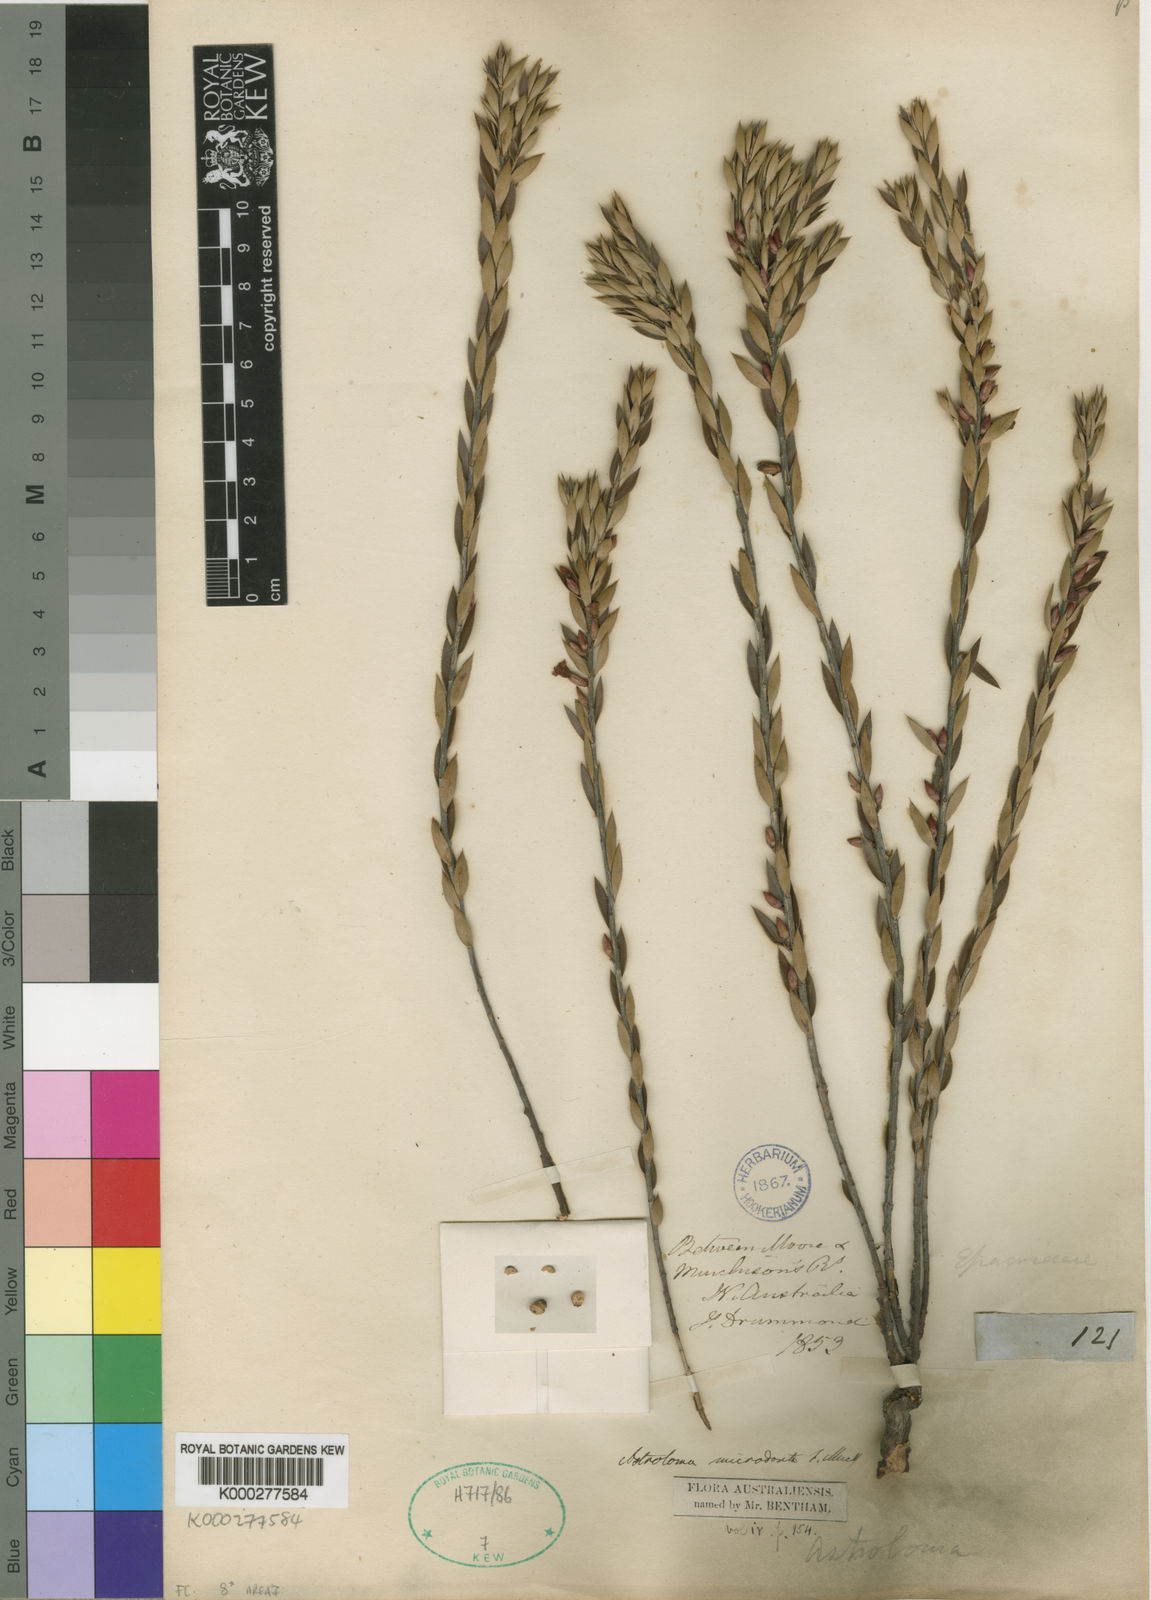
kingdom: Plantae
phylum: Tracheophyta
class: Magnoliopsida
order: Ericales
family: Ericaceae
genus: Styphelia
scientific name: Styphelia microdonta
